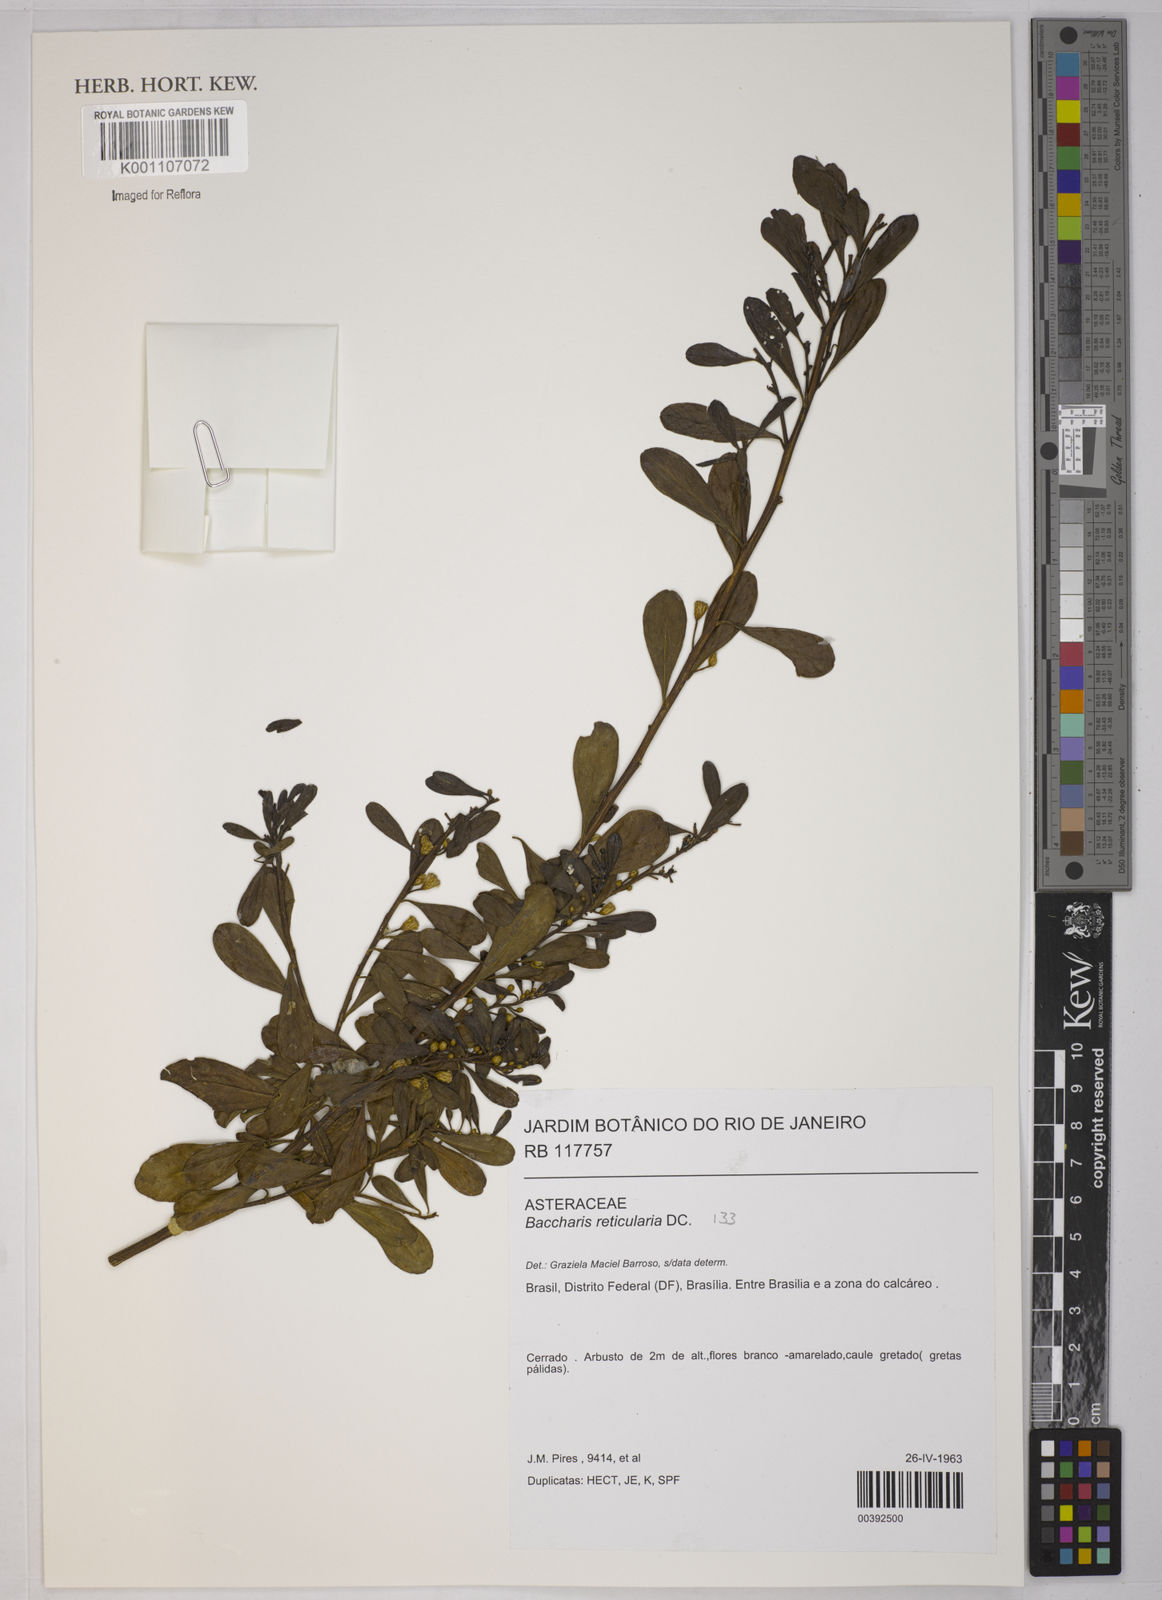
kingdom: Plantae
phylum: Tracheophyta
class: Magnoliopsida
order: Asterales
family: Asteraceae
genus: Baccharis
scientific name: Baccharis reticularia
